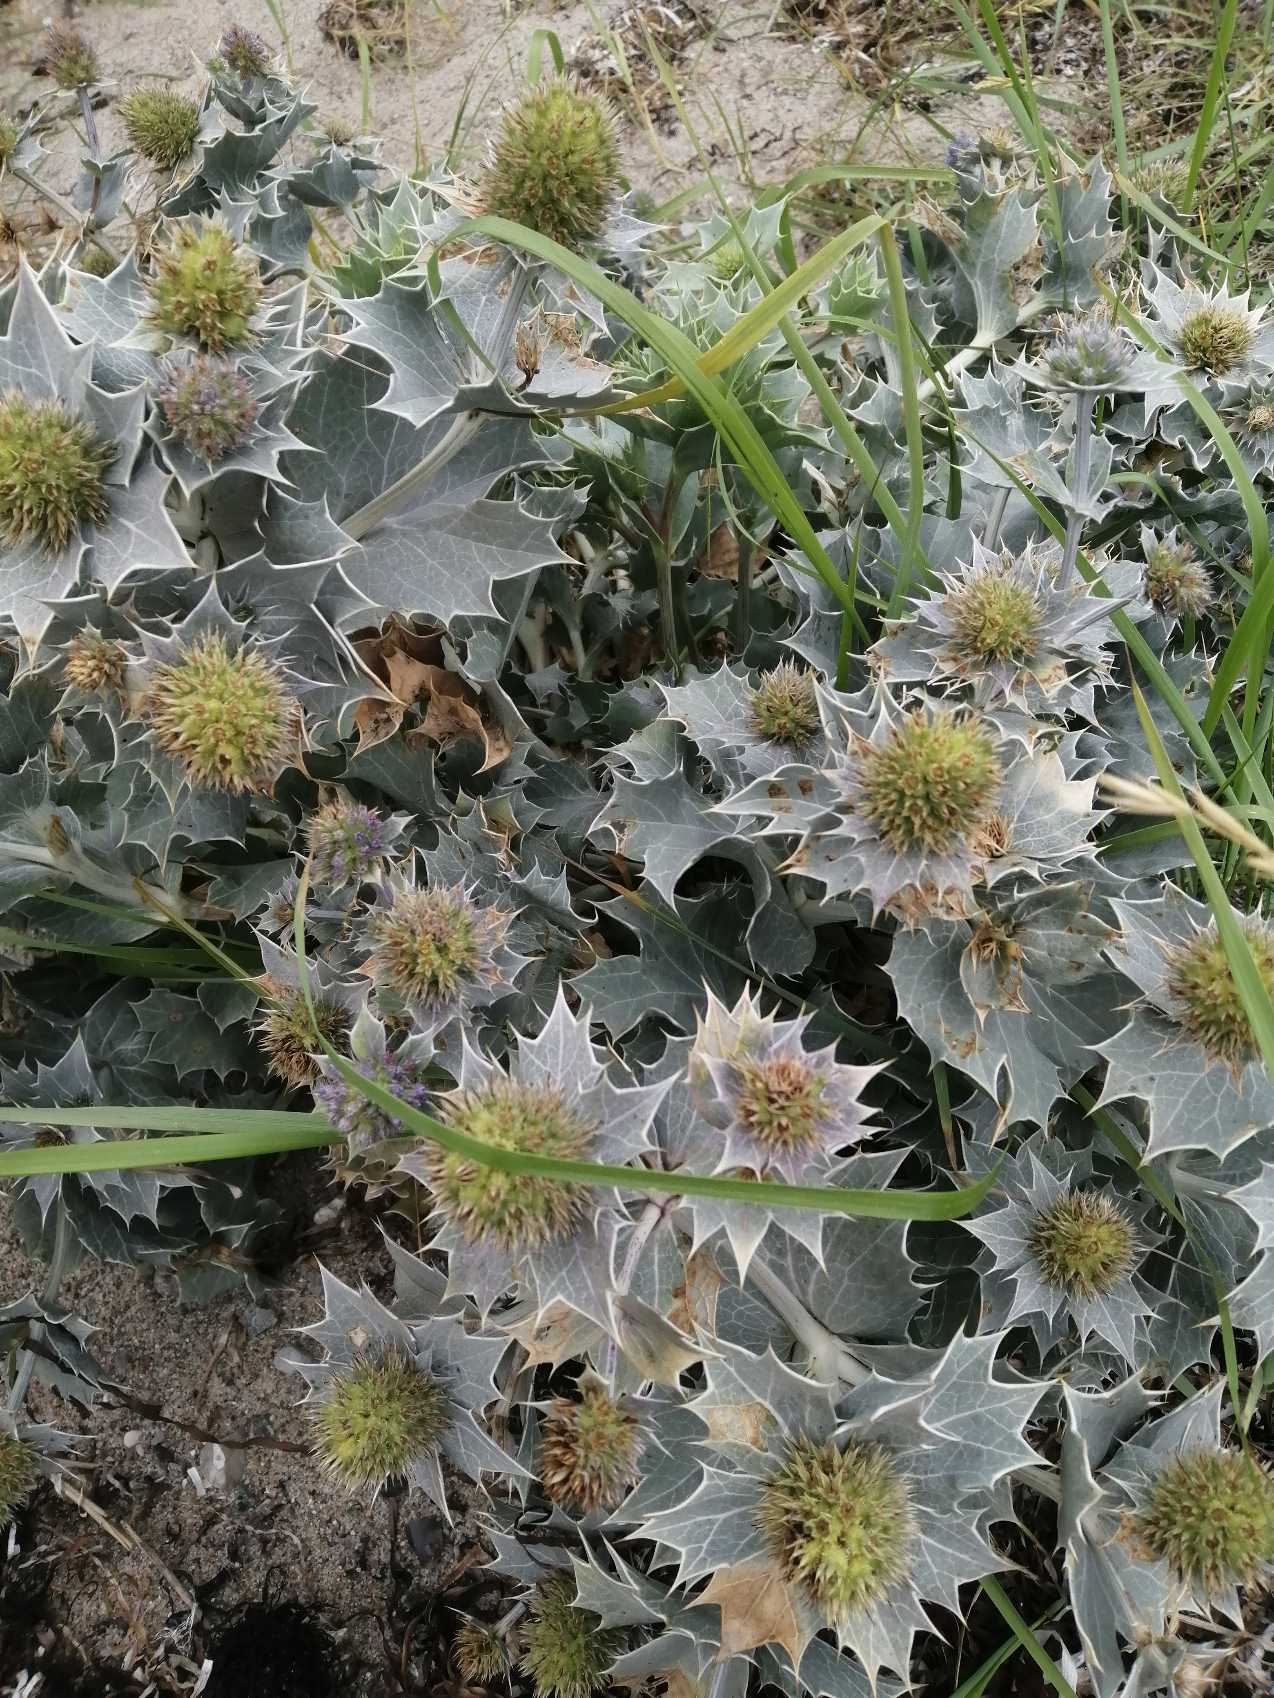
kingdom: Plantae
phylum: Tracheophyta
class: Magnoliopsida
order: Apiales
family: Apiaceae
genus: Eryngium
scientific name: Eryngium maritimum
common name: Strand-mandstro
